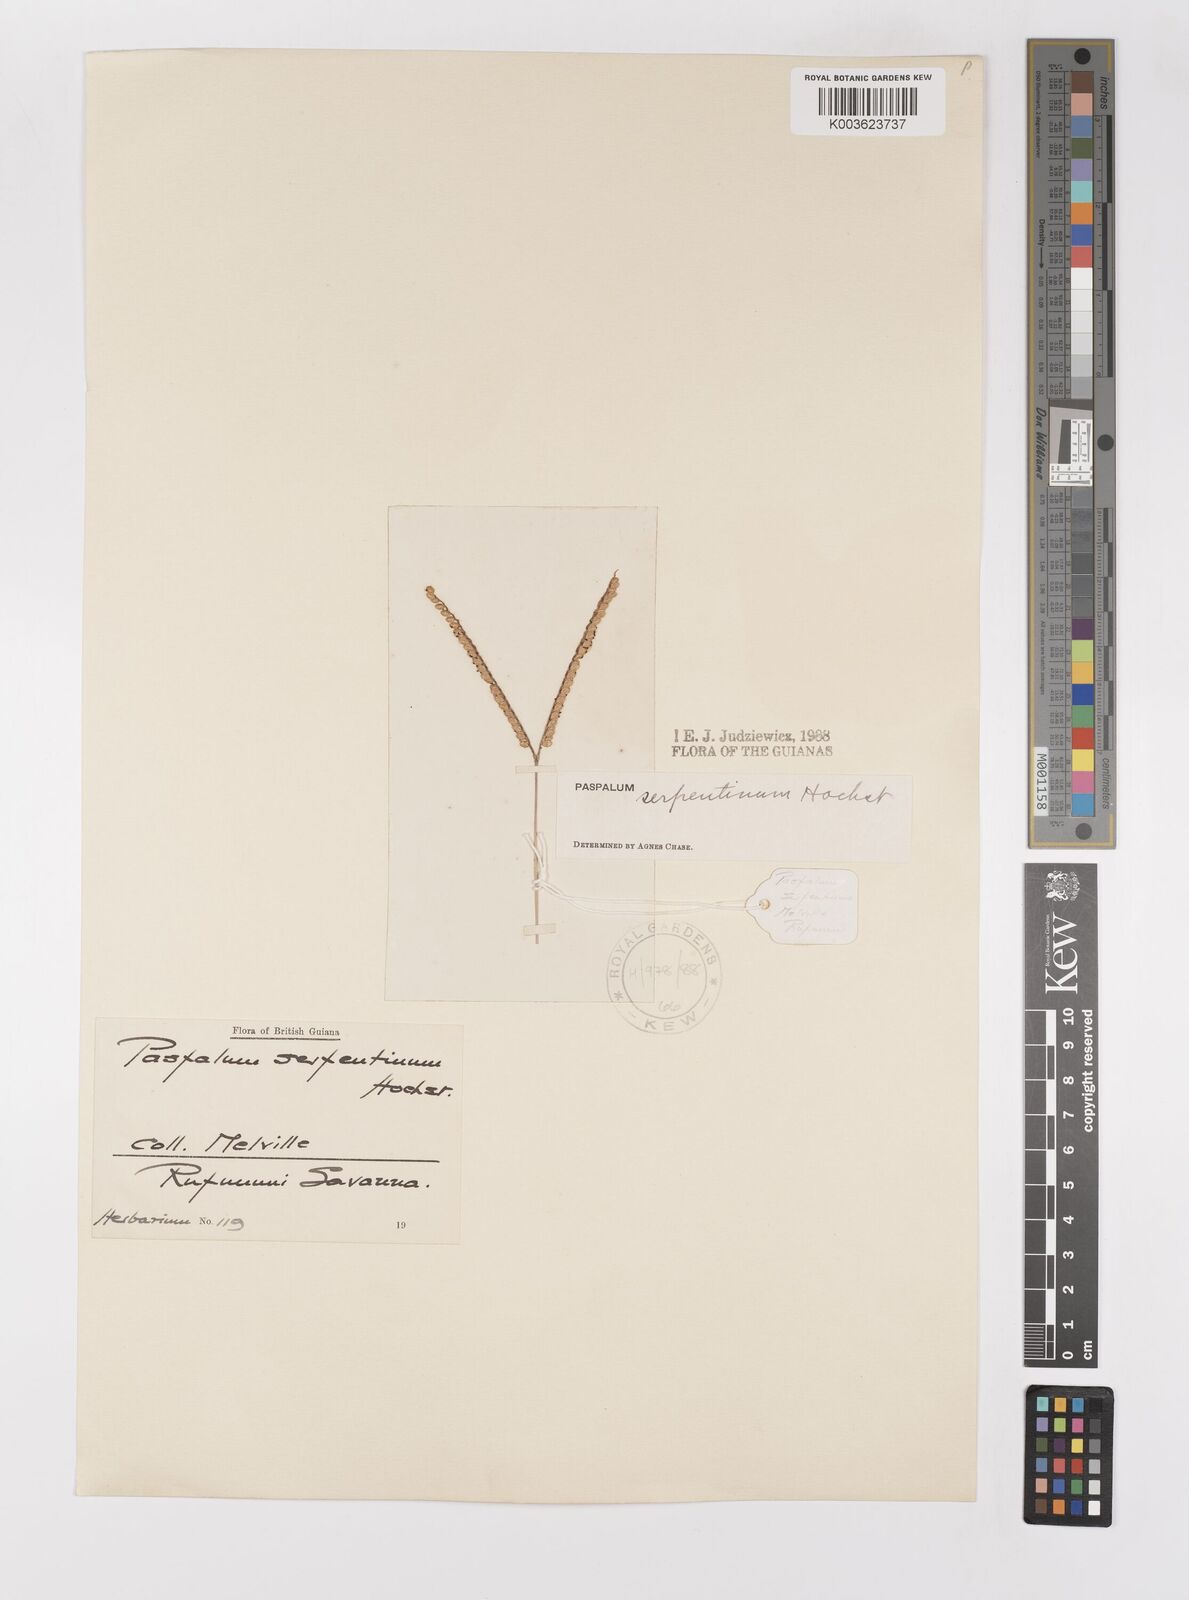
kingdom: Plantae
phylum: Tracheophyta
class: Liliopsida
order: Poales
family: Poaceae
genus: Paspalum
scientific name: Paspalum serpentinum
